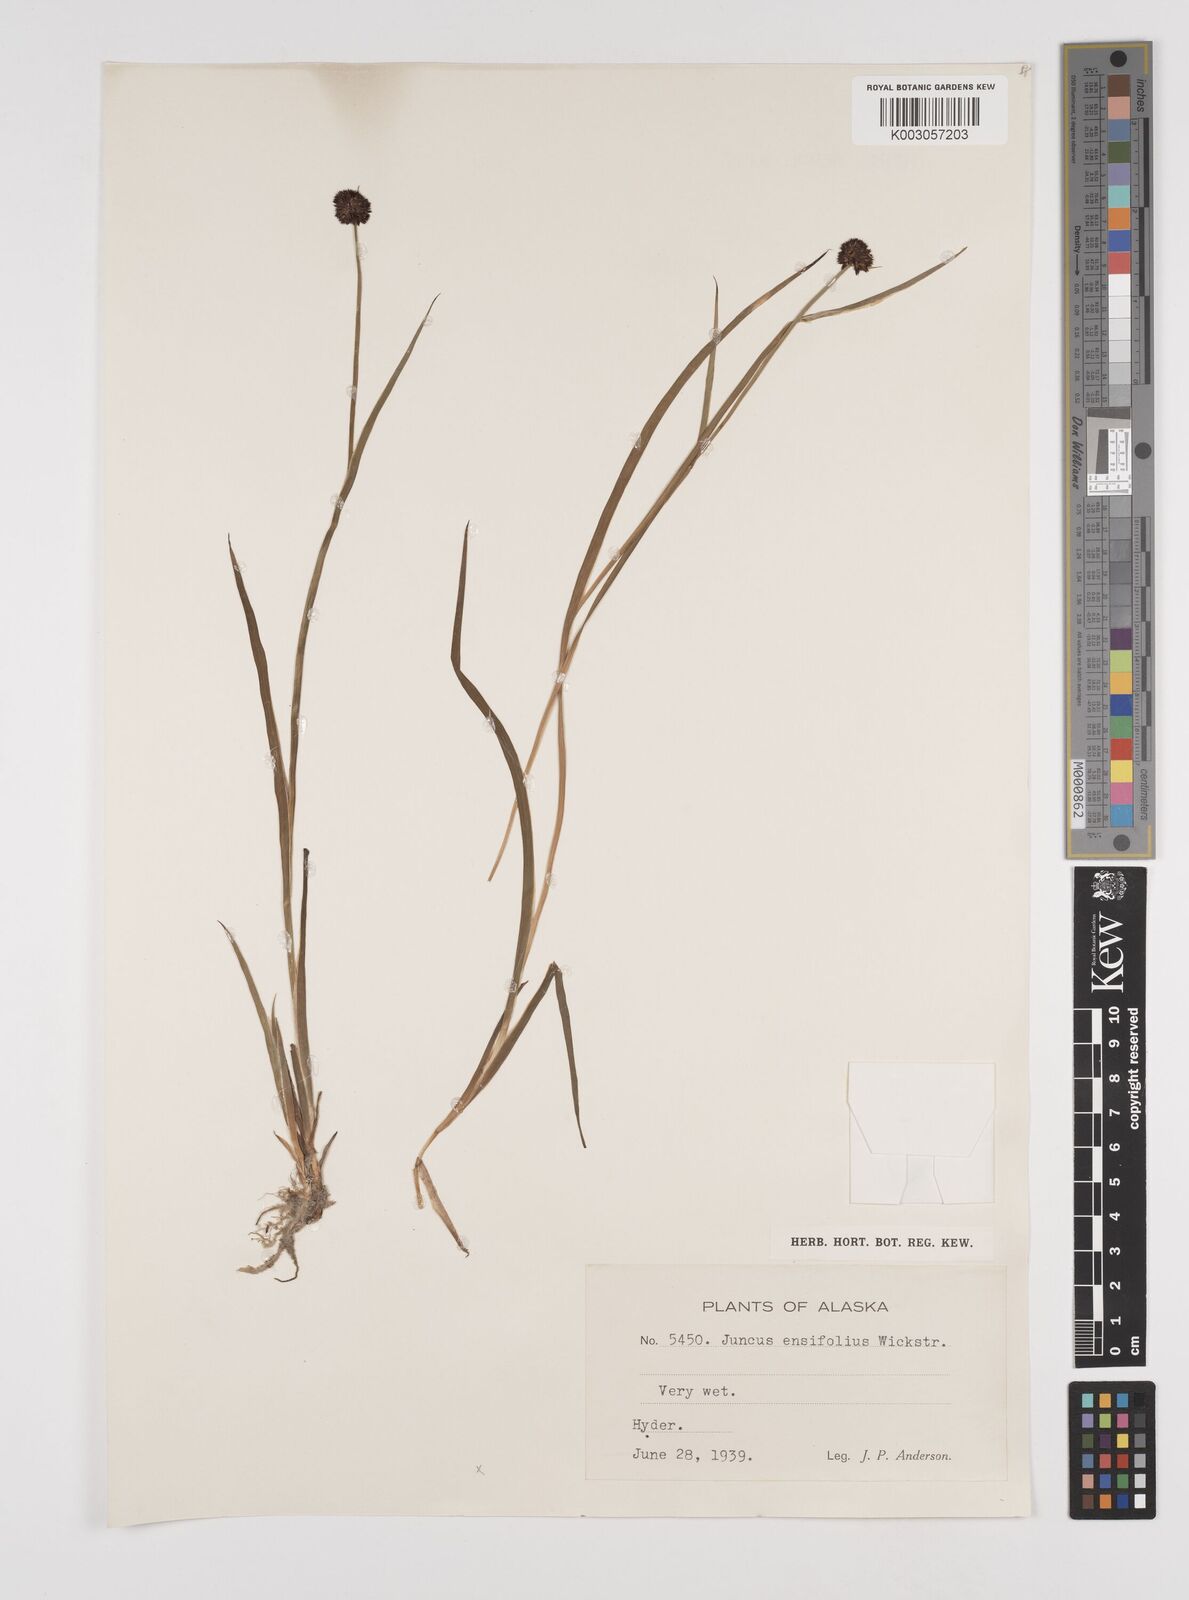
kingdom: Plantae
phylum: Tracheophyta
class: Liliopsida
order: Poales
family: Juncaceae
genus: Juncus
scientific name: Juncus ensifolius
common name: Sword-leaved rush
